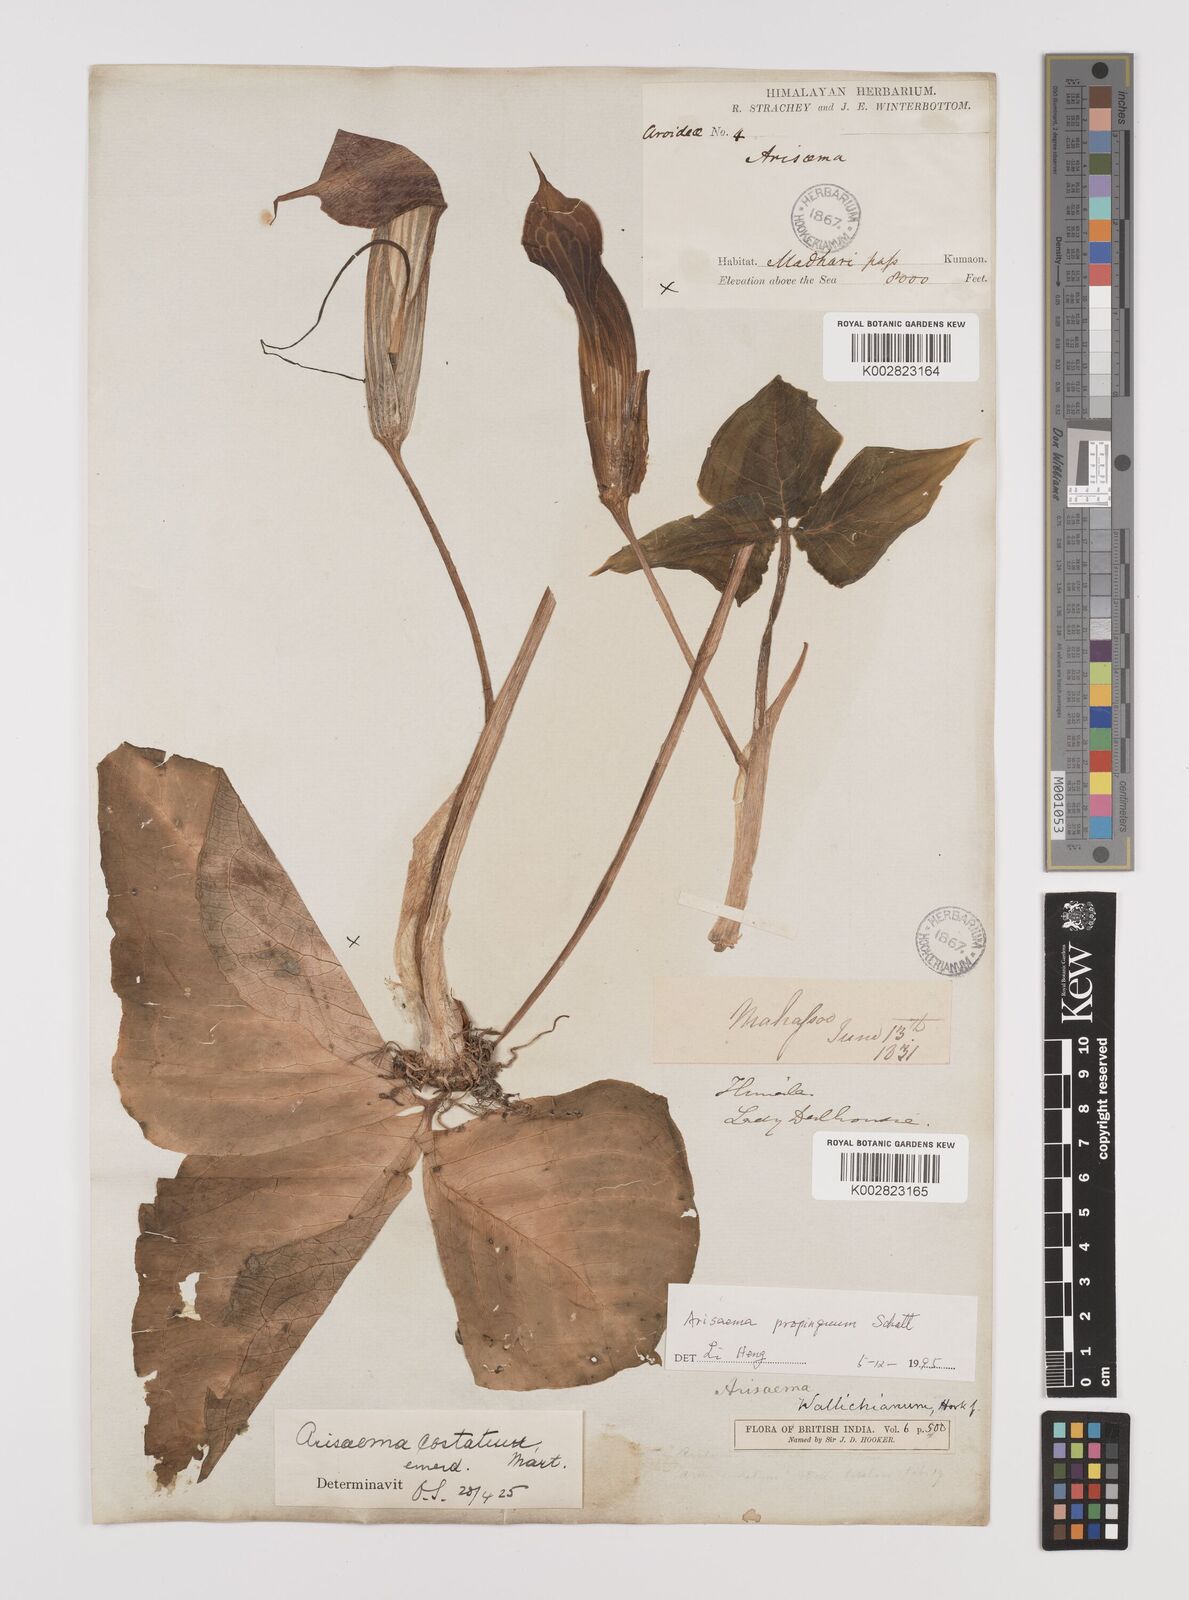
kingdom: Plantae
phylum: Tracheophyta
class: Liliopsida
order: Alismatales
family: Araceae
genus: Arisaema
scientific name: Arisaema propinquum
